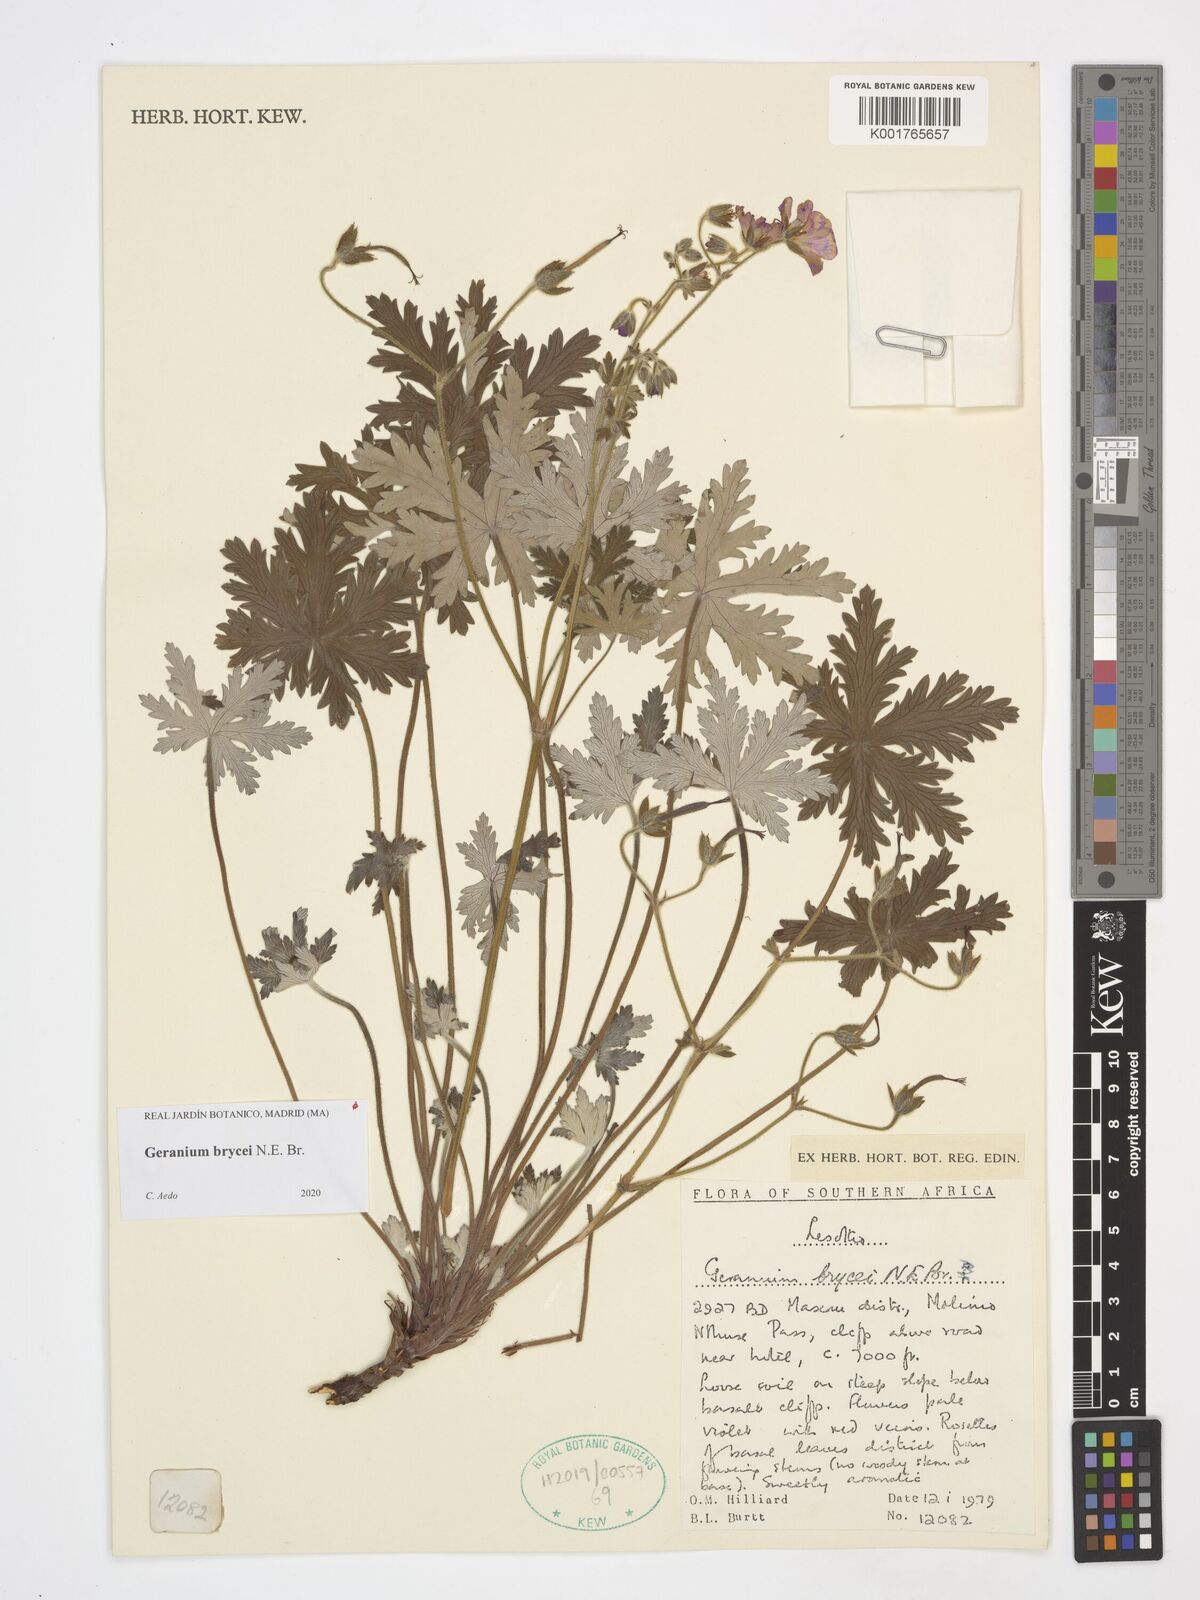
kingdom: Plantae
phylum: Tracheophyta
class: Magnoliopsida
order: Geraniales
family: Geraniaceae
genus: Geranium
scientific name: Geranium brycei
